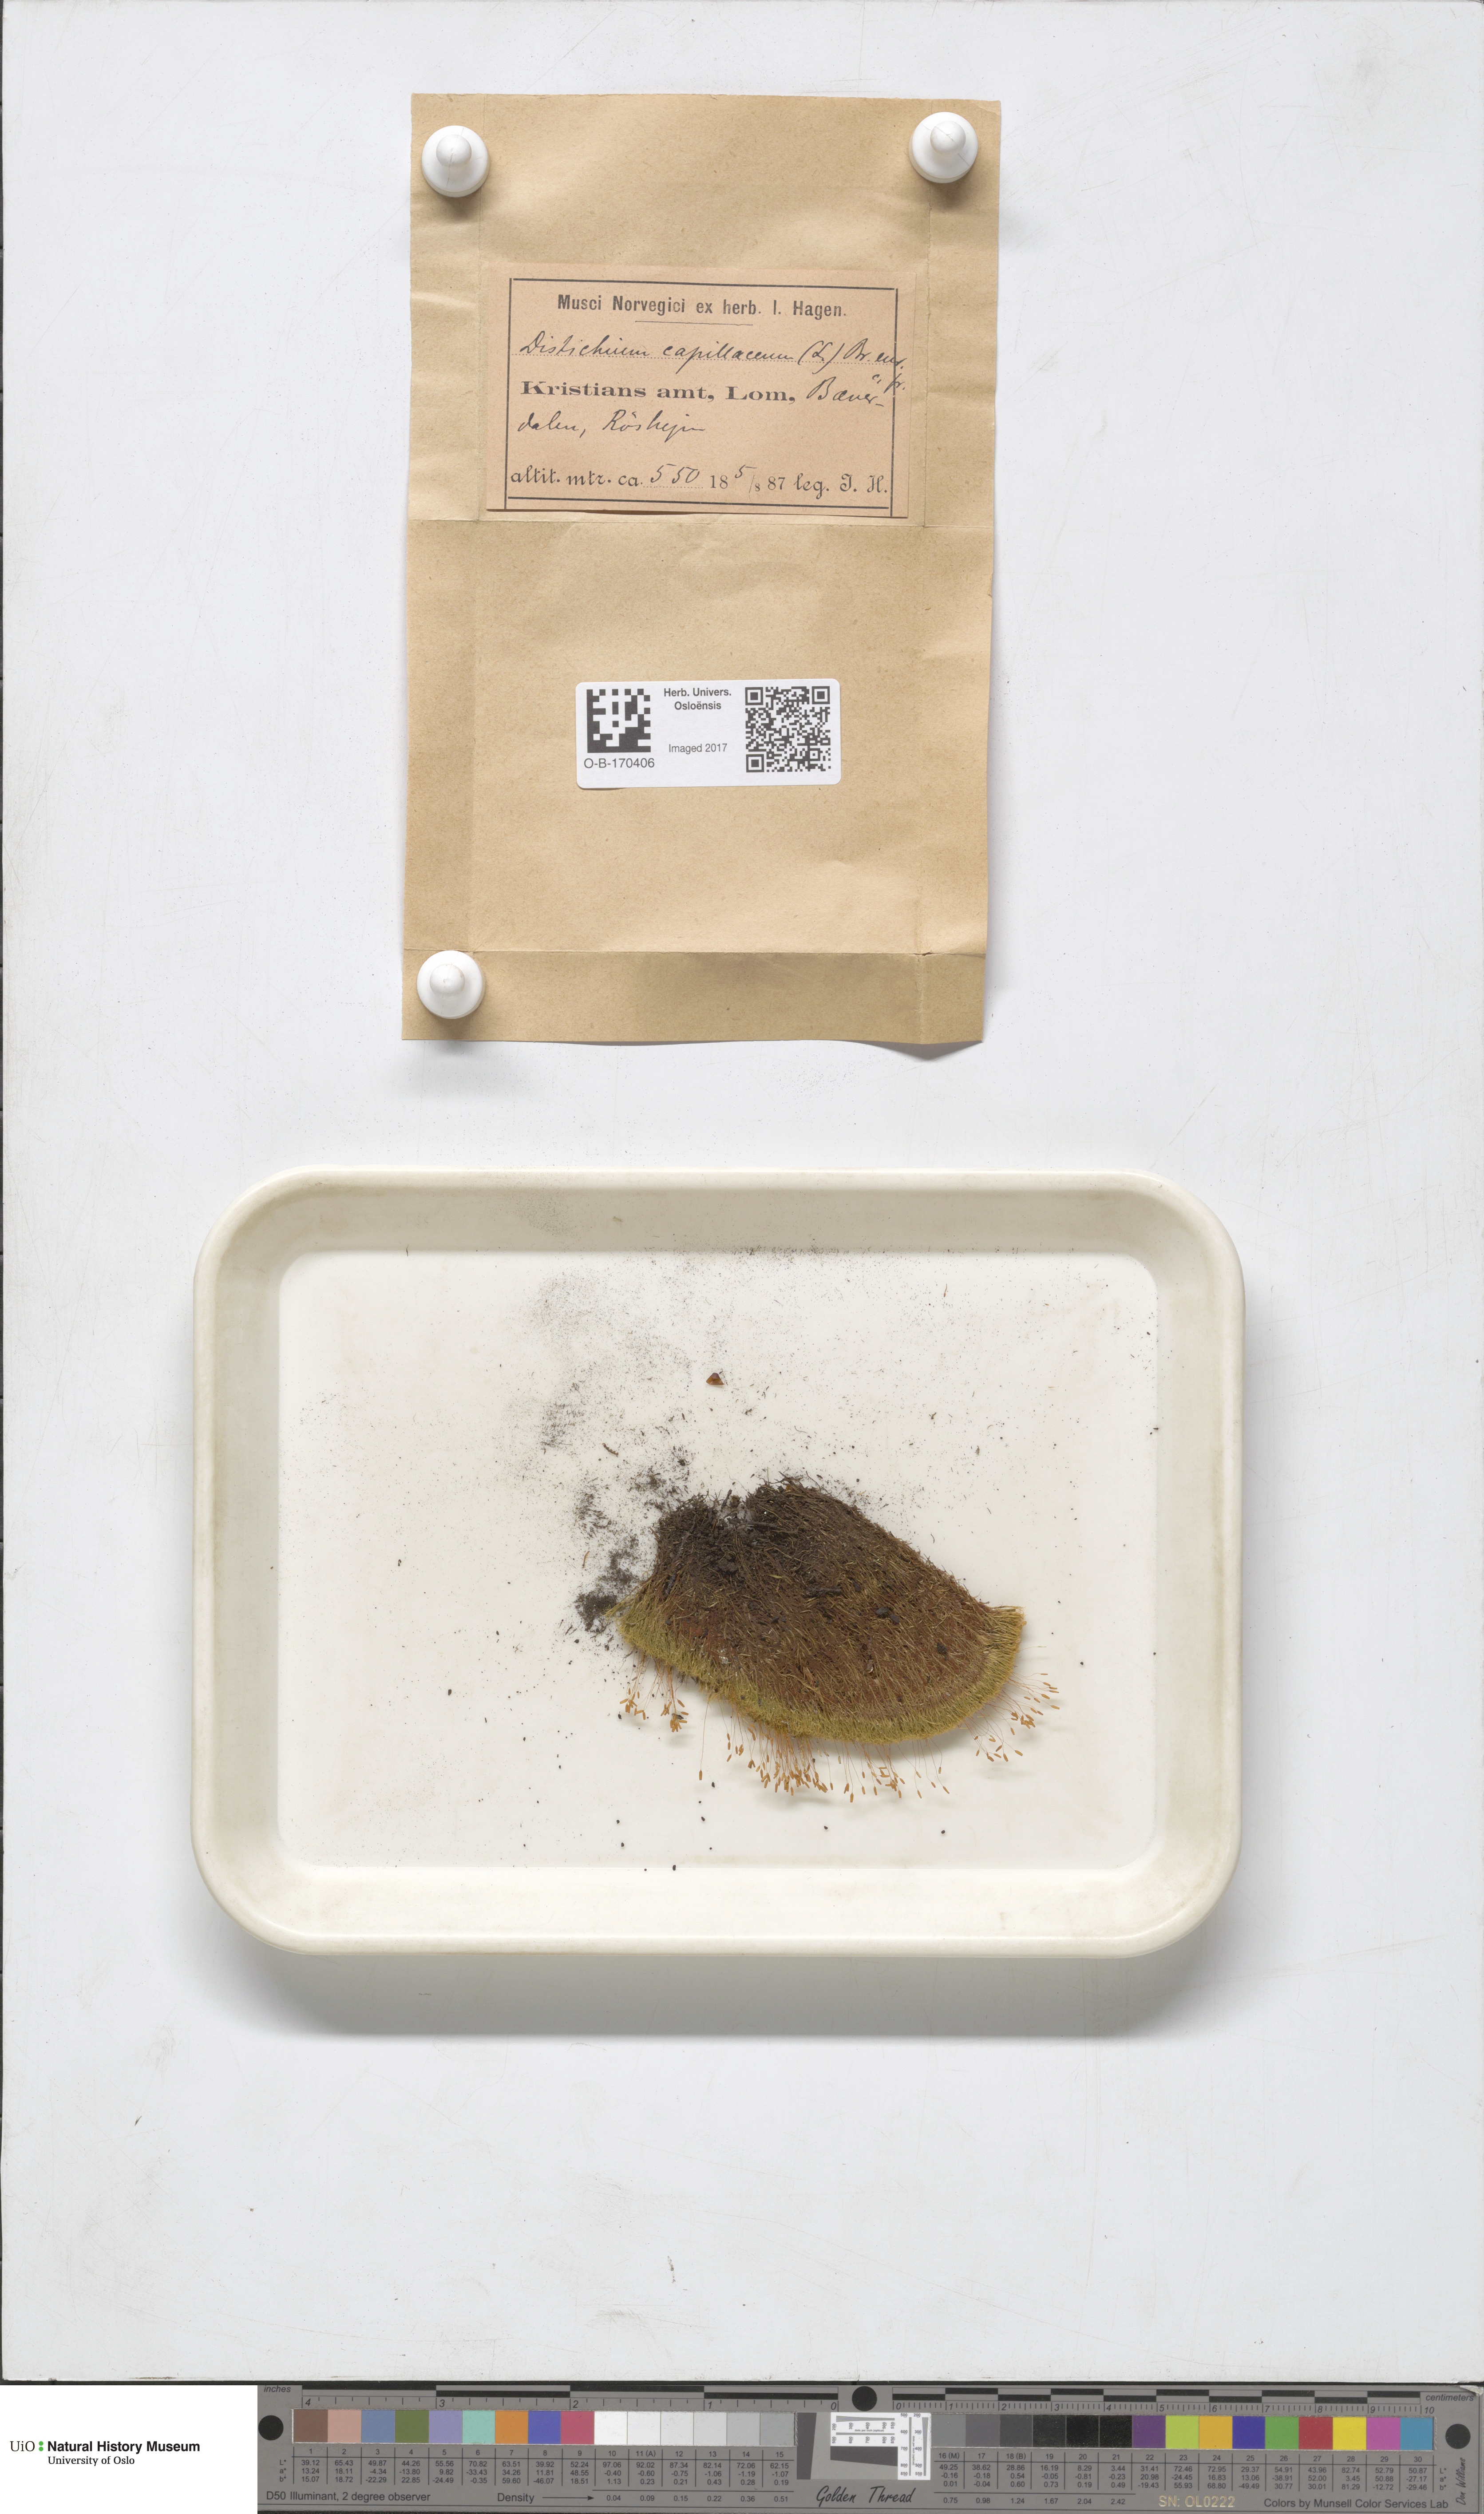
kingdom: Plantae
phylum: Bryophyta
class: Bryopsida
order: Scouleriales
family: Distichiaceae
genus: Distichium
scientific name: Distichium capillaceum
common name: Erect-fruited iris moss
